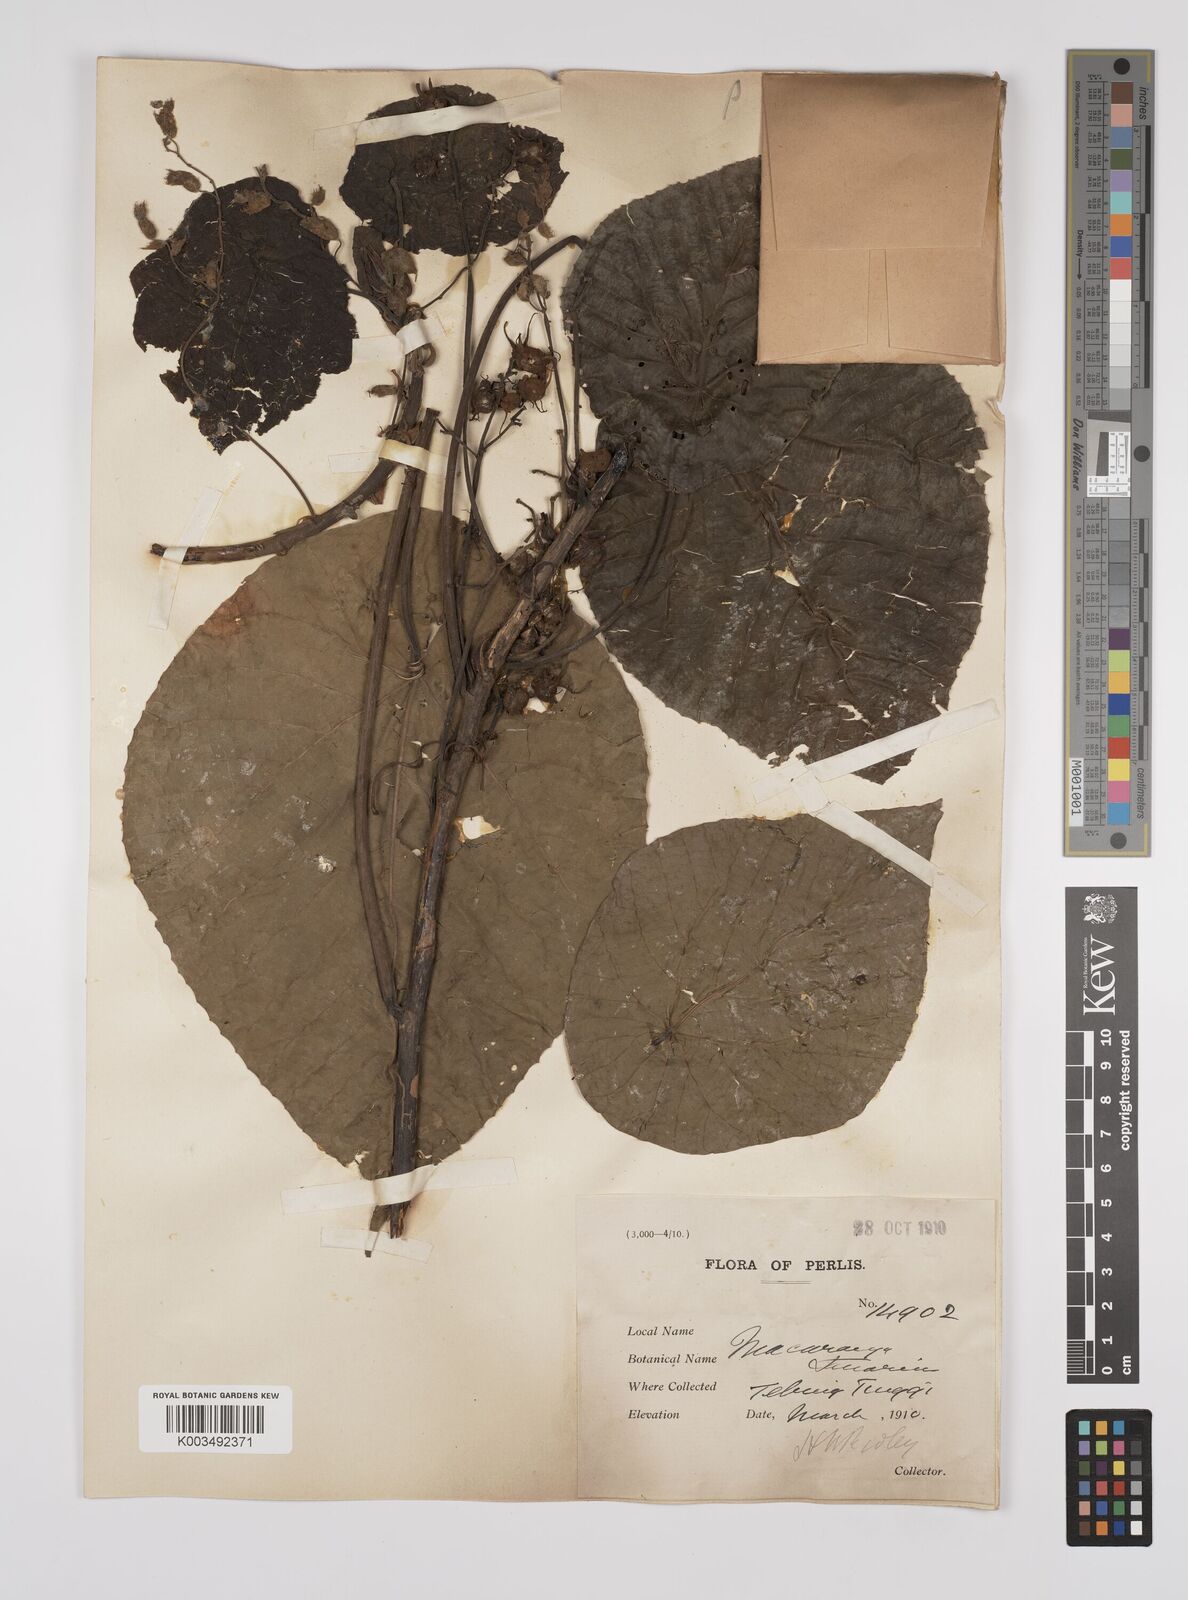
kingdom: Plantae
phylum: Tracheophyta
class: Magnoliopsida
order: Malpighiales
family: Euphorbiaceae
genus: Macaranga
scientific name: Macaranga tanarius
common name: Parasol leaf tree
